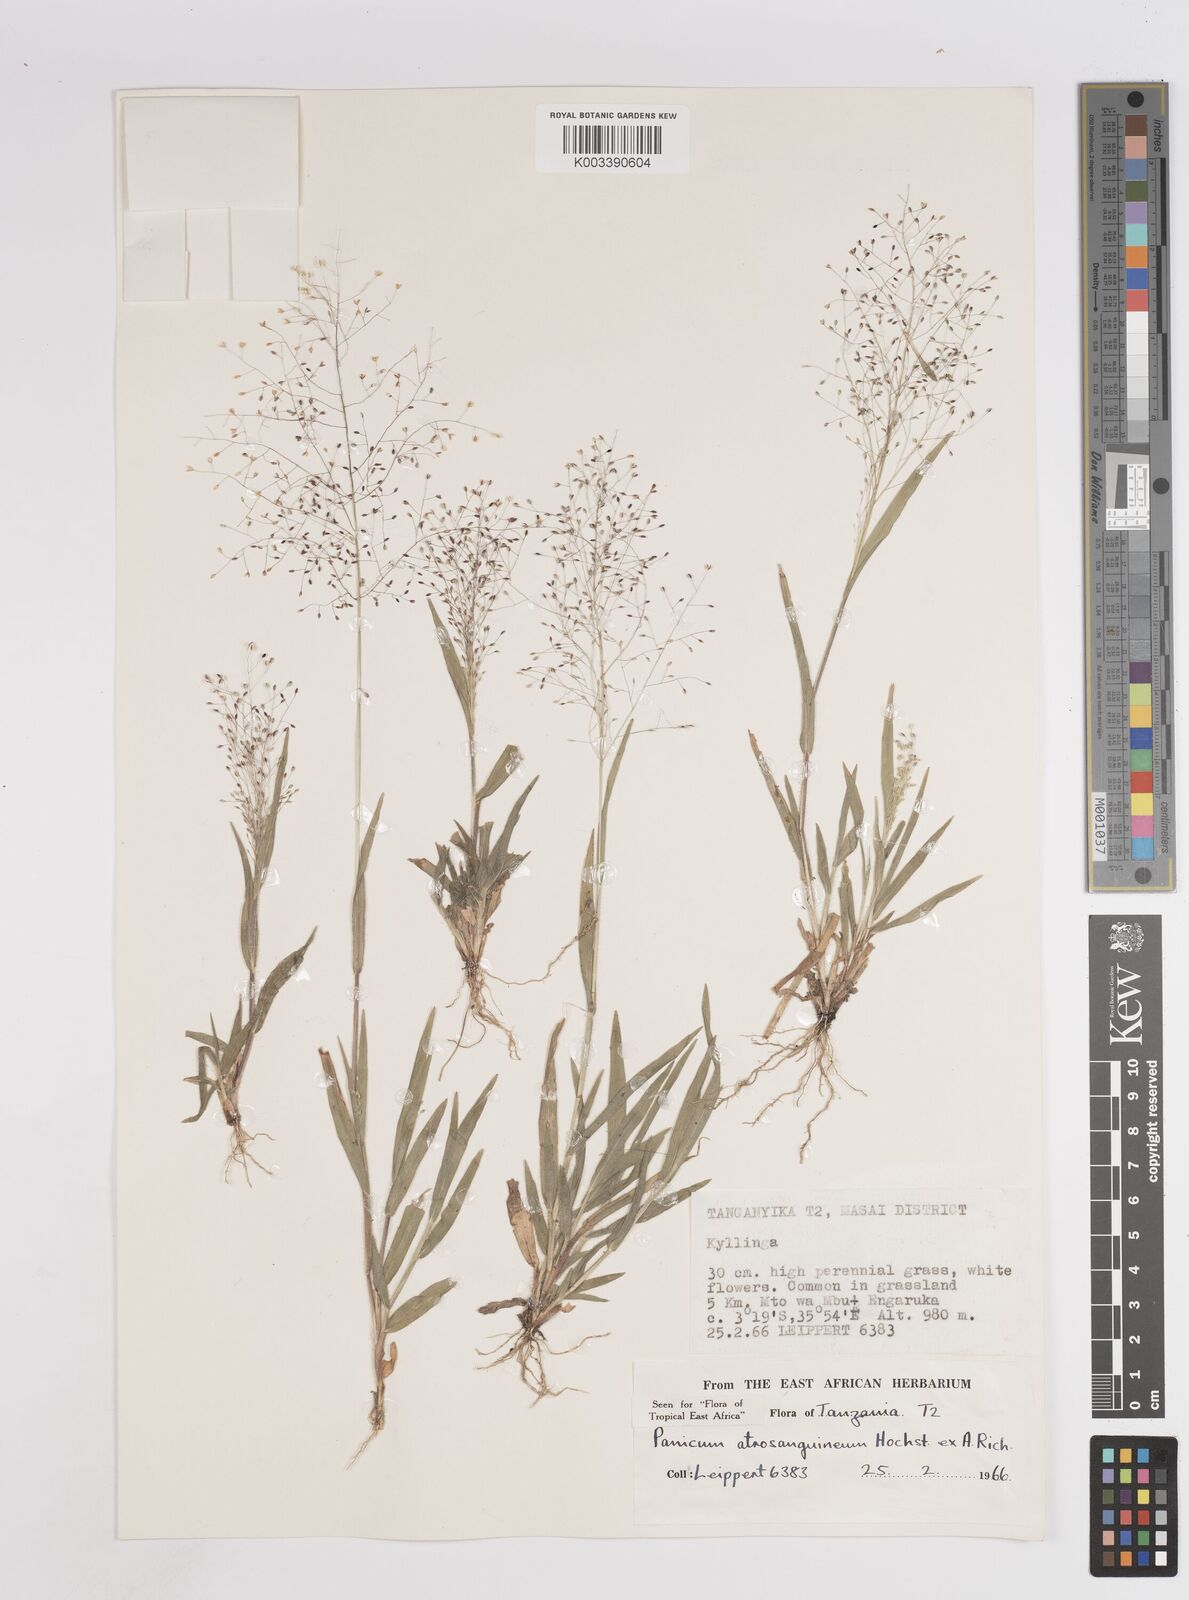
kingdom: Plantae
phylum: Tracheophyta
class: Liliopsida
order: Poales
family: Poaceae
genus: Panicum
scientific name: Panicum atrosanguineum
